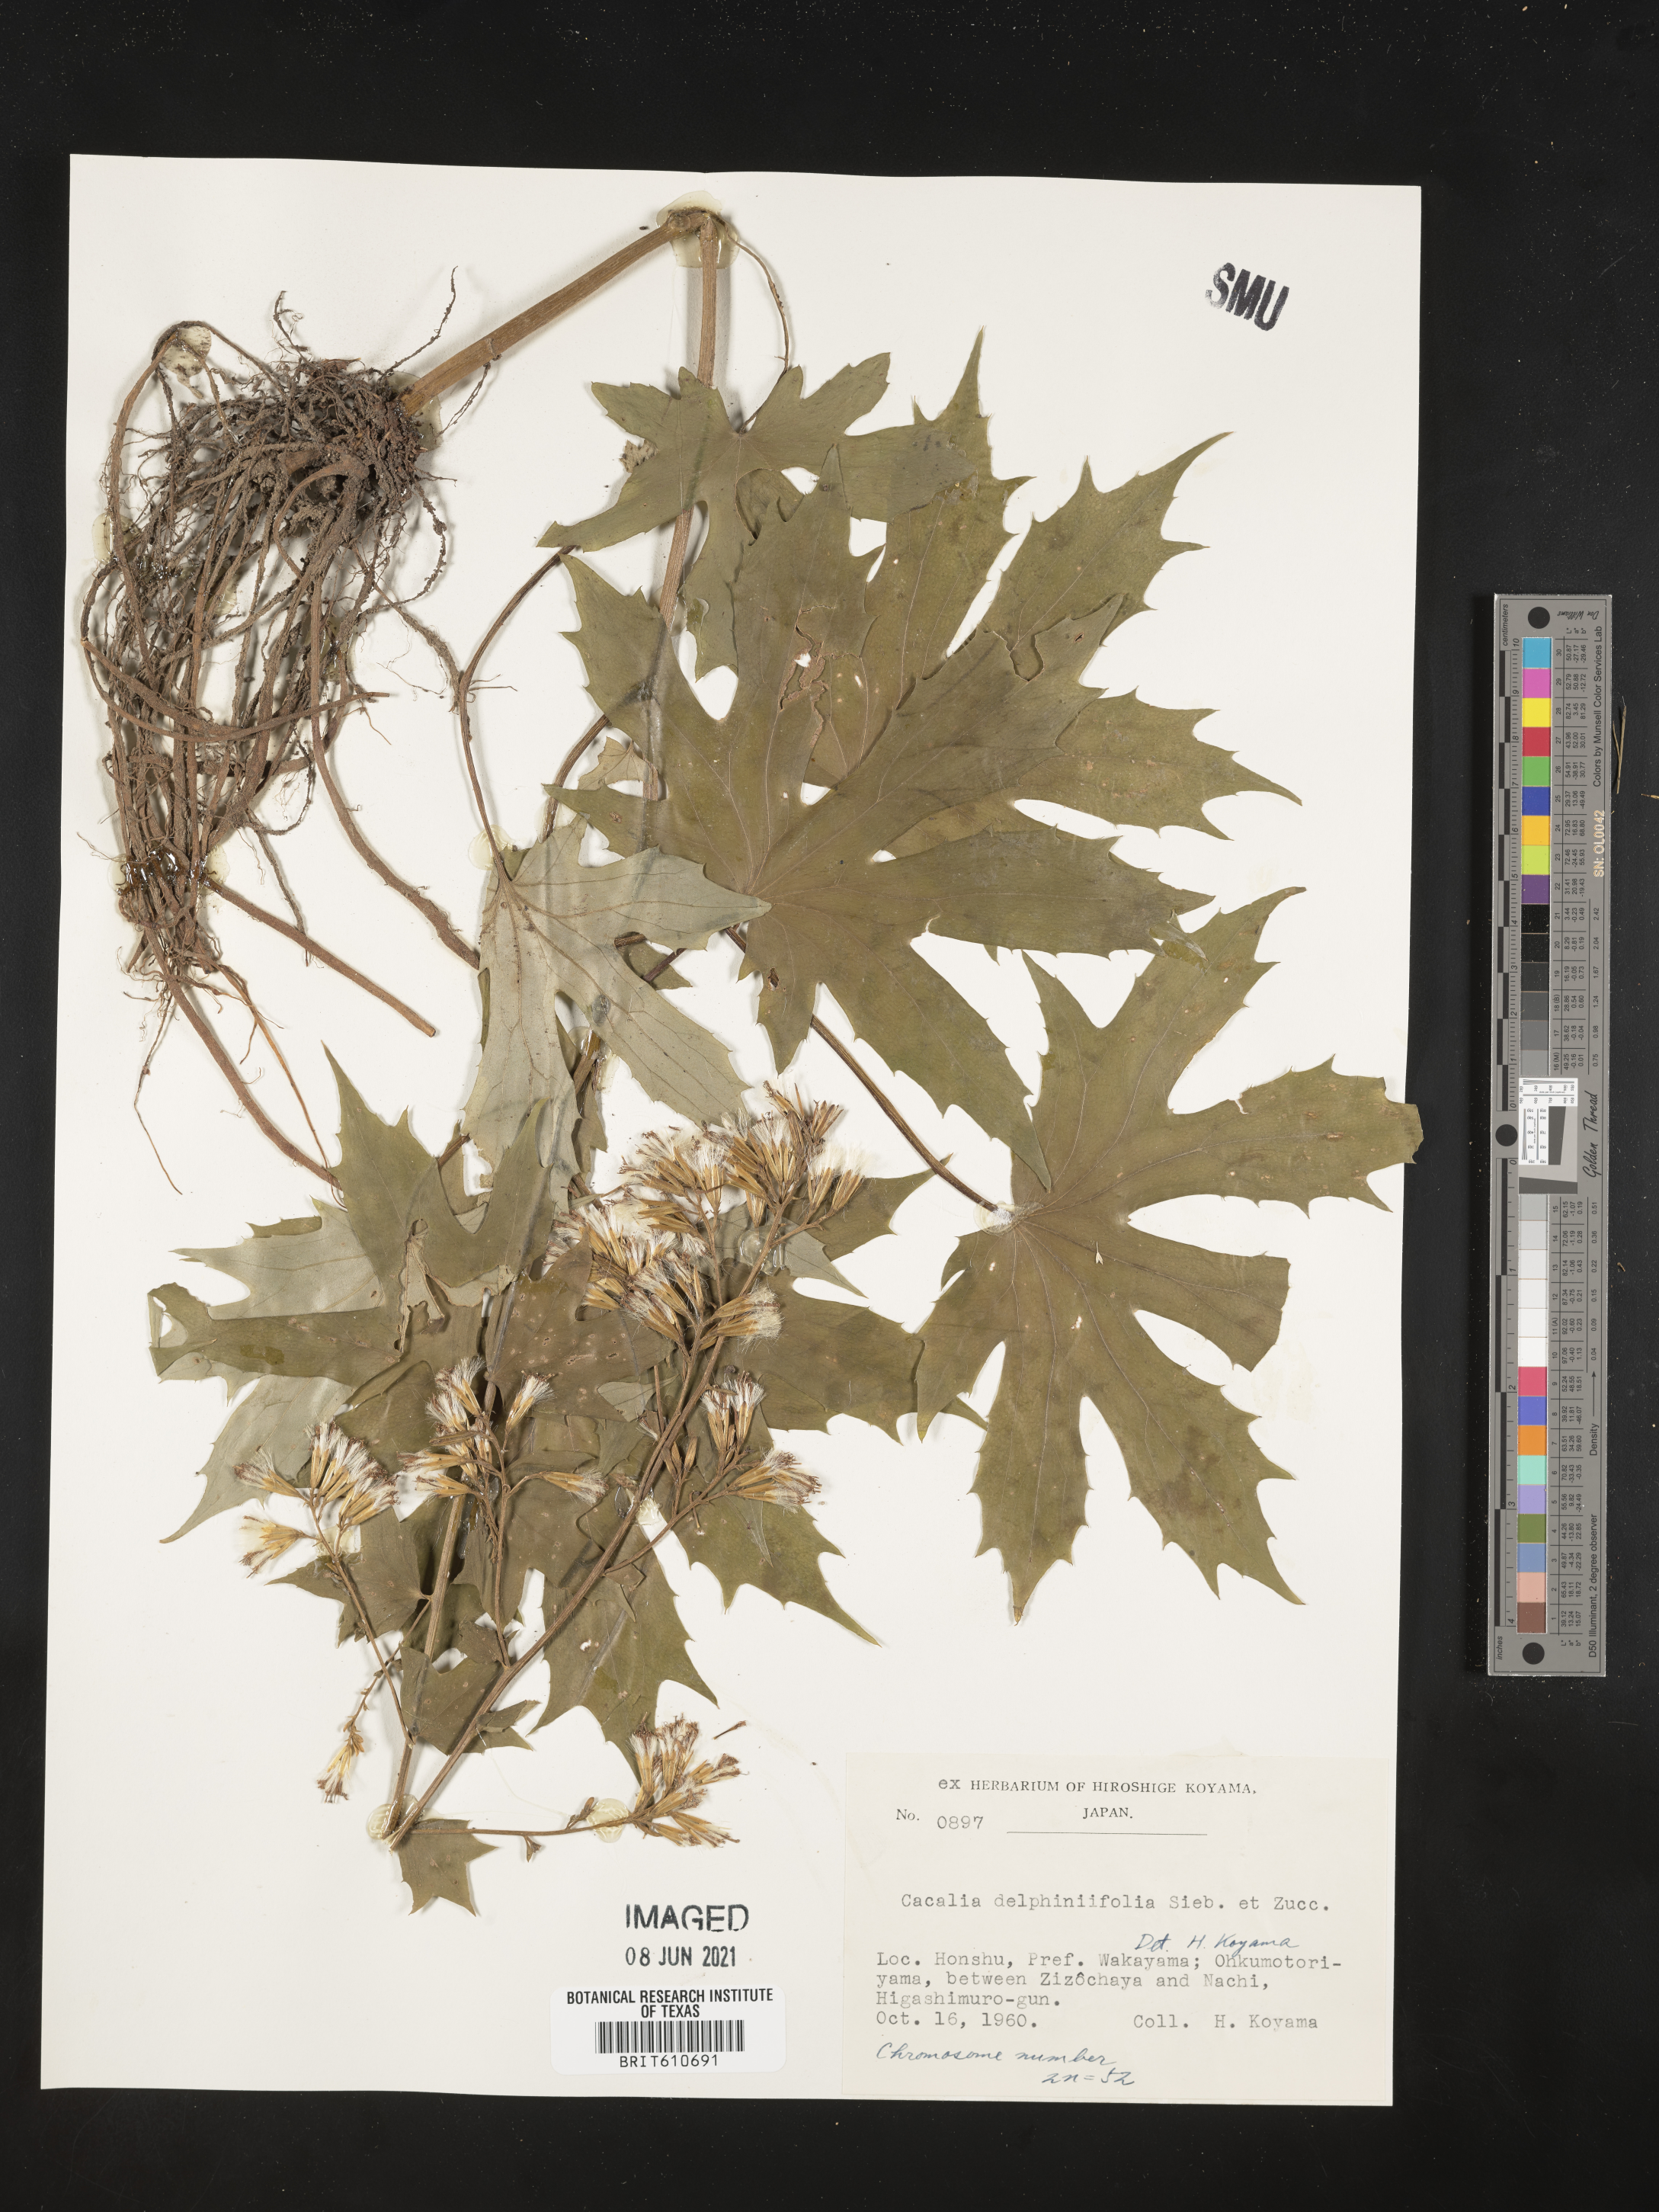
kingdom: Plantae
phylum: Tracheophyta
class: Magnoliopsida
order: Asterales
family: Asteraceae
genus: Japonicalia
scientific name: Japonicalia delphiniifolia
